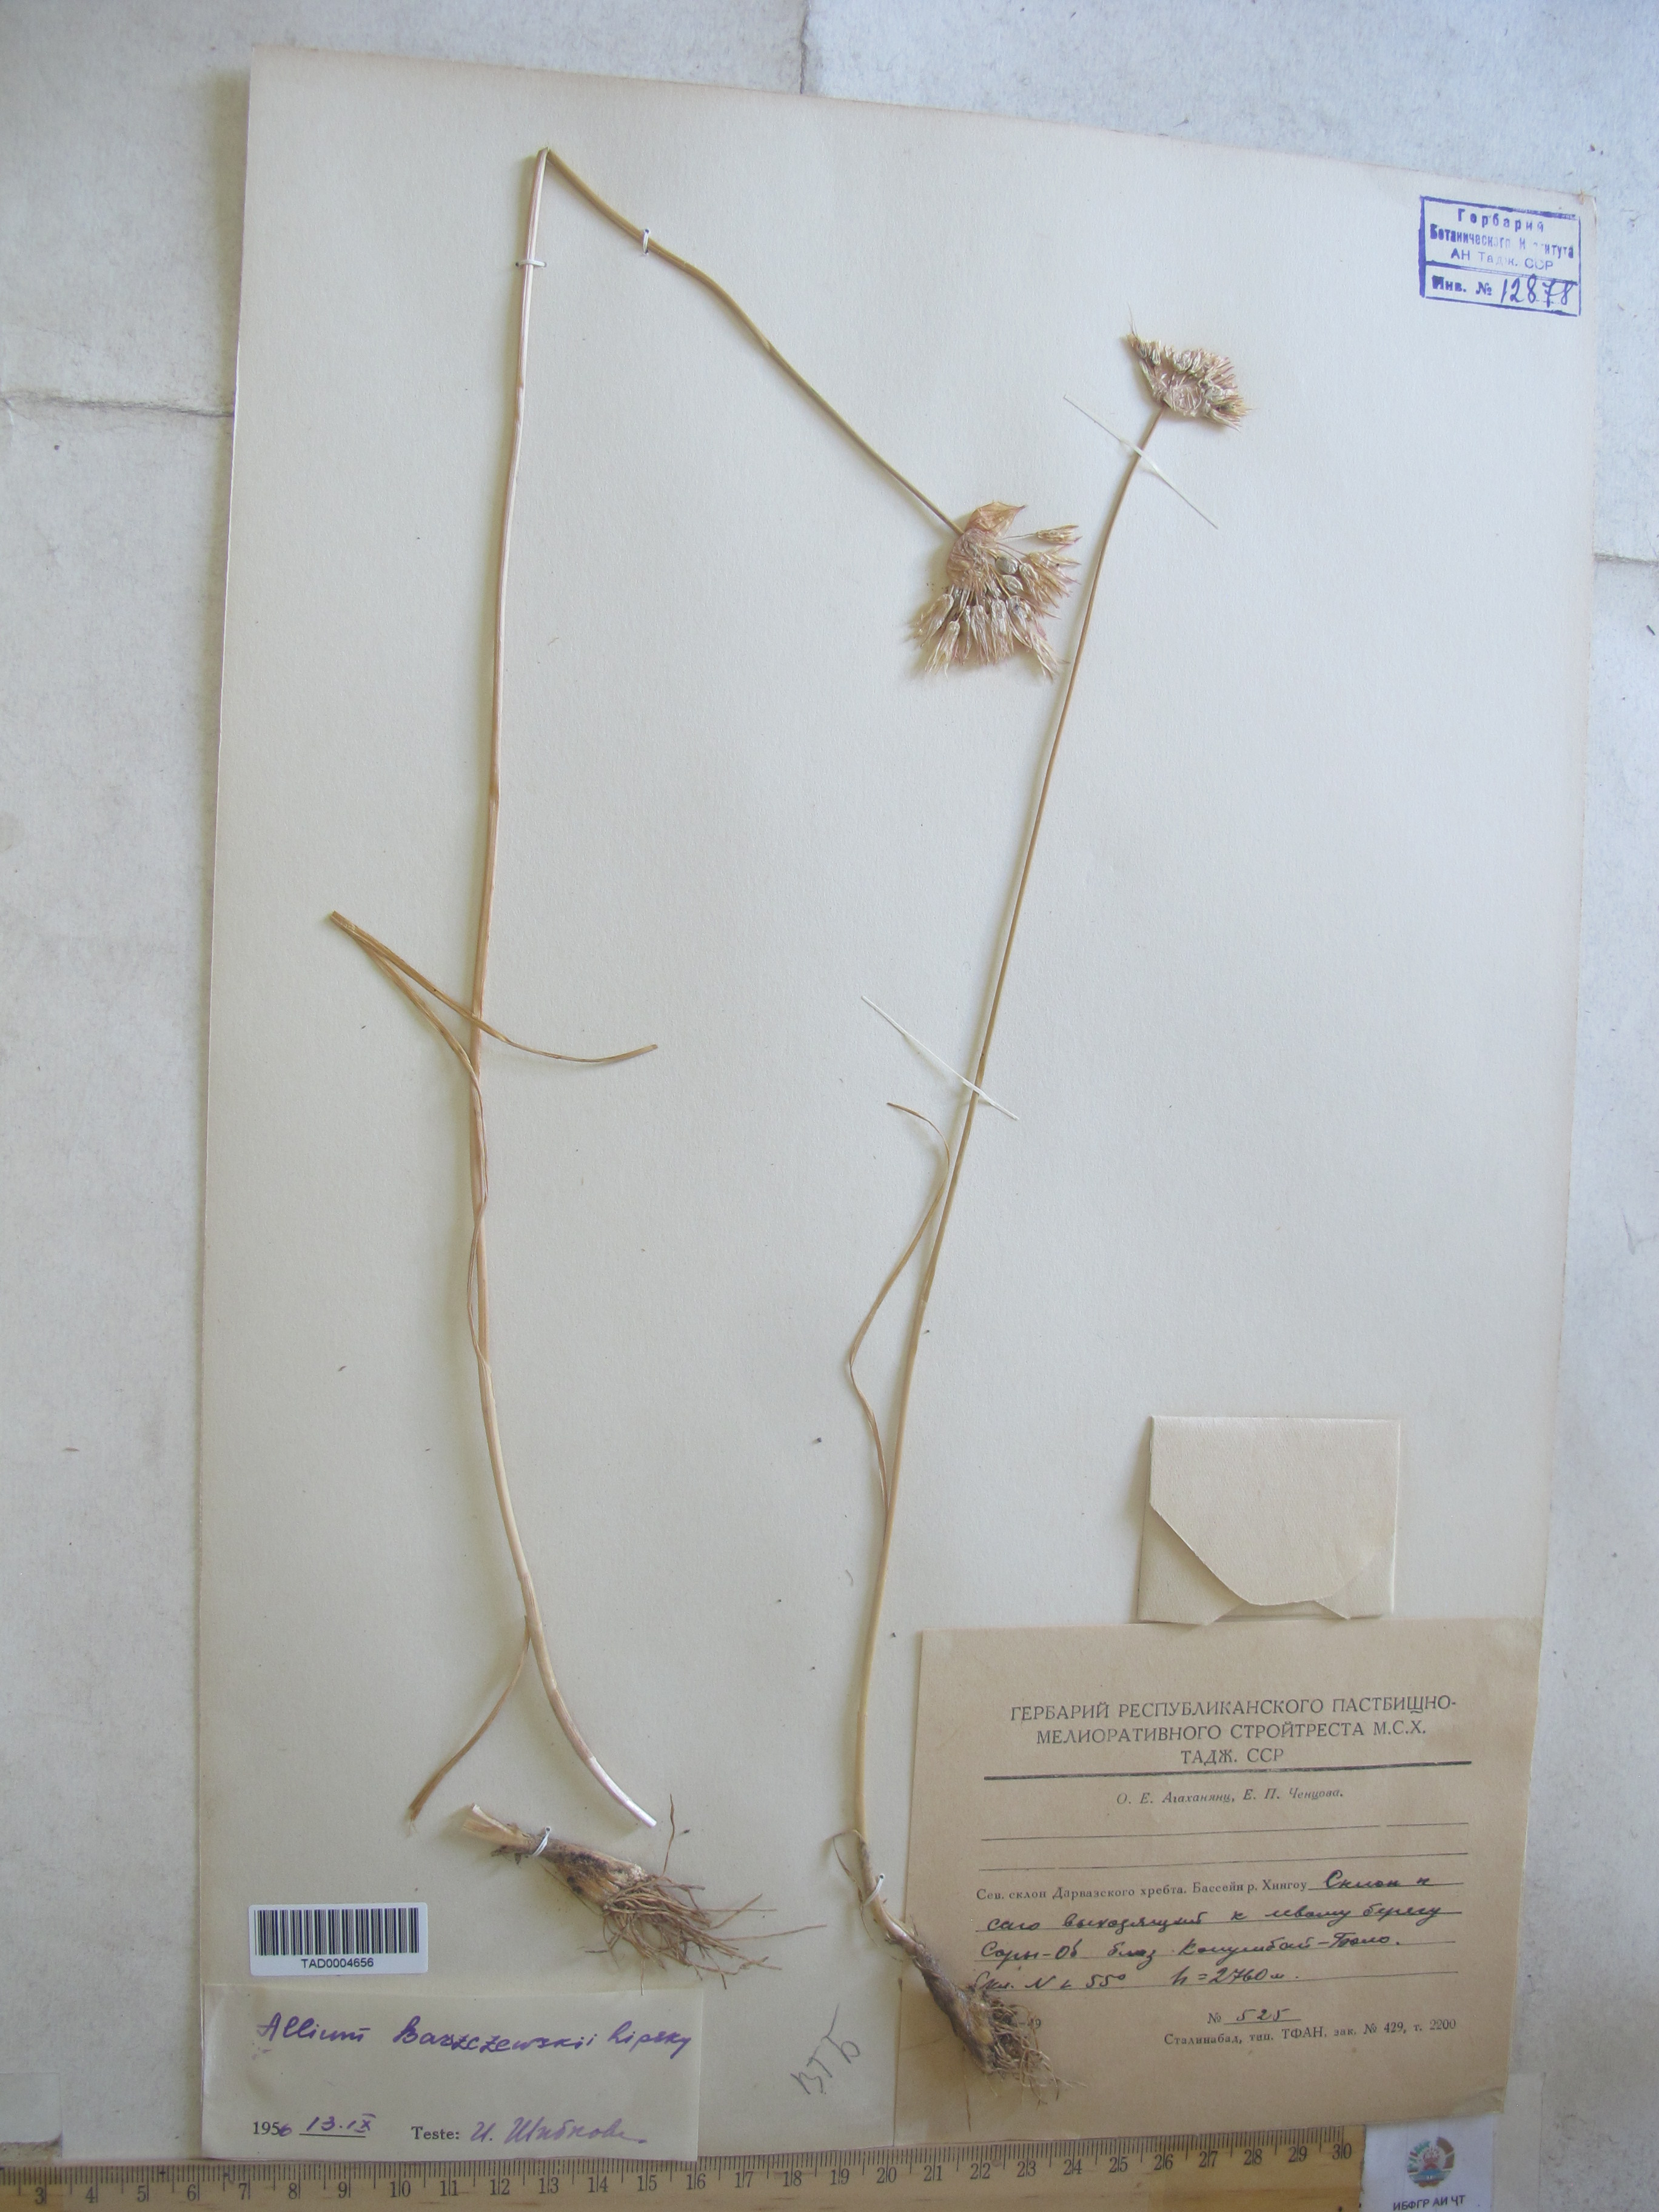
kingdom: Plantae
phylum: Tracheophyta
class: Liliopsida
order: Asparagales
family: Amaryllidaceae
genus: Allium
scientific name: Allium barsczewskii
